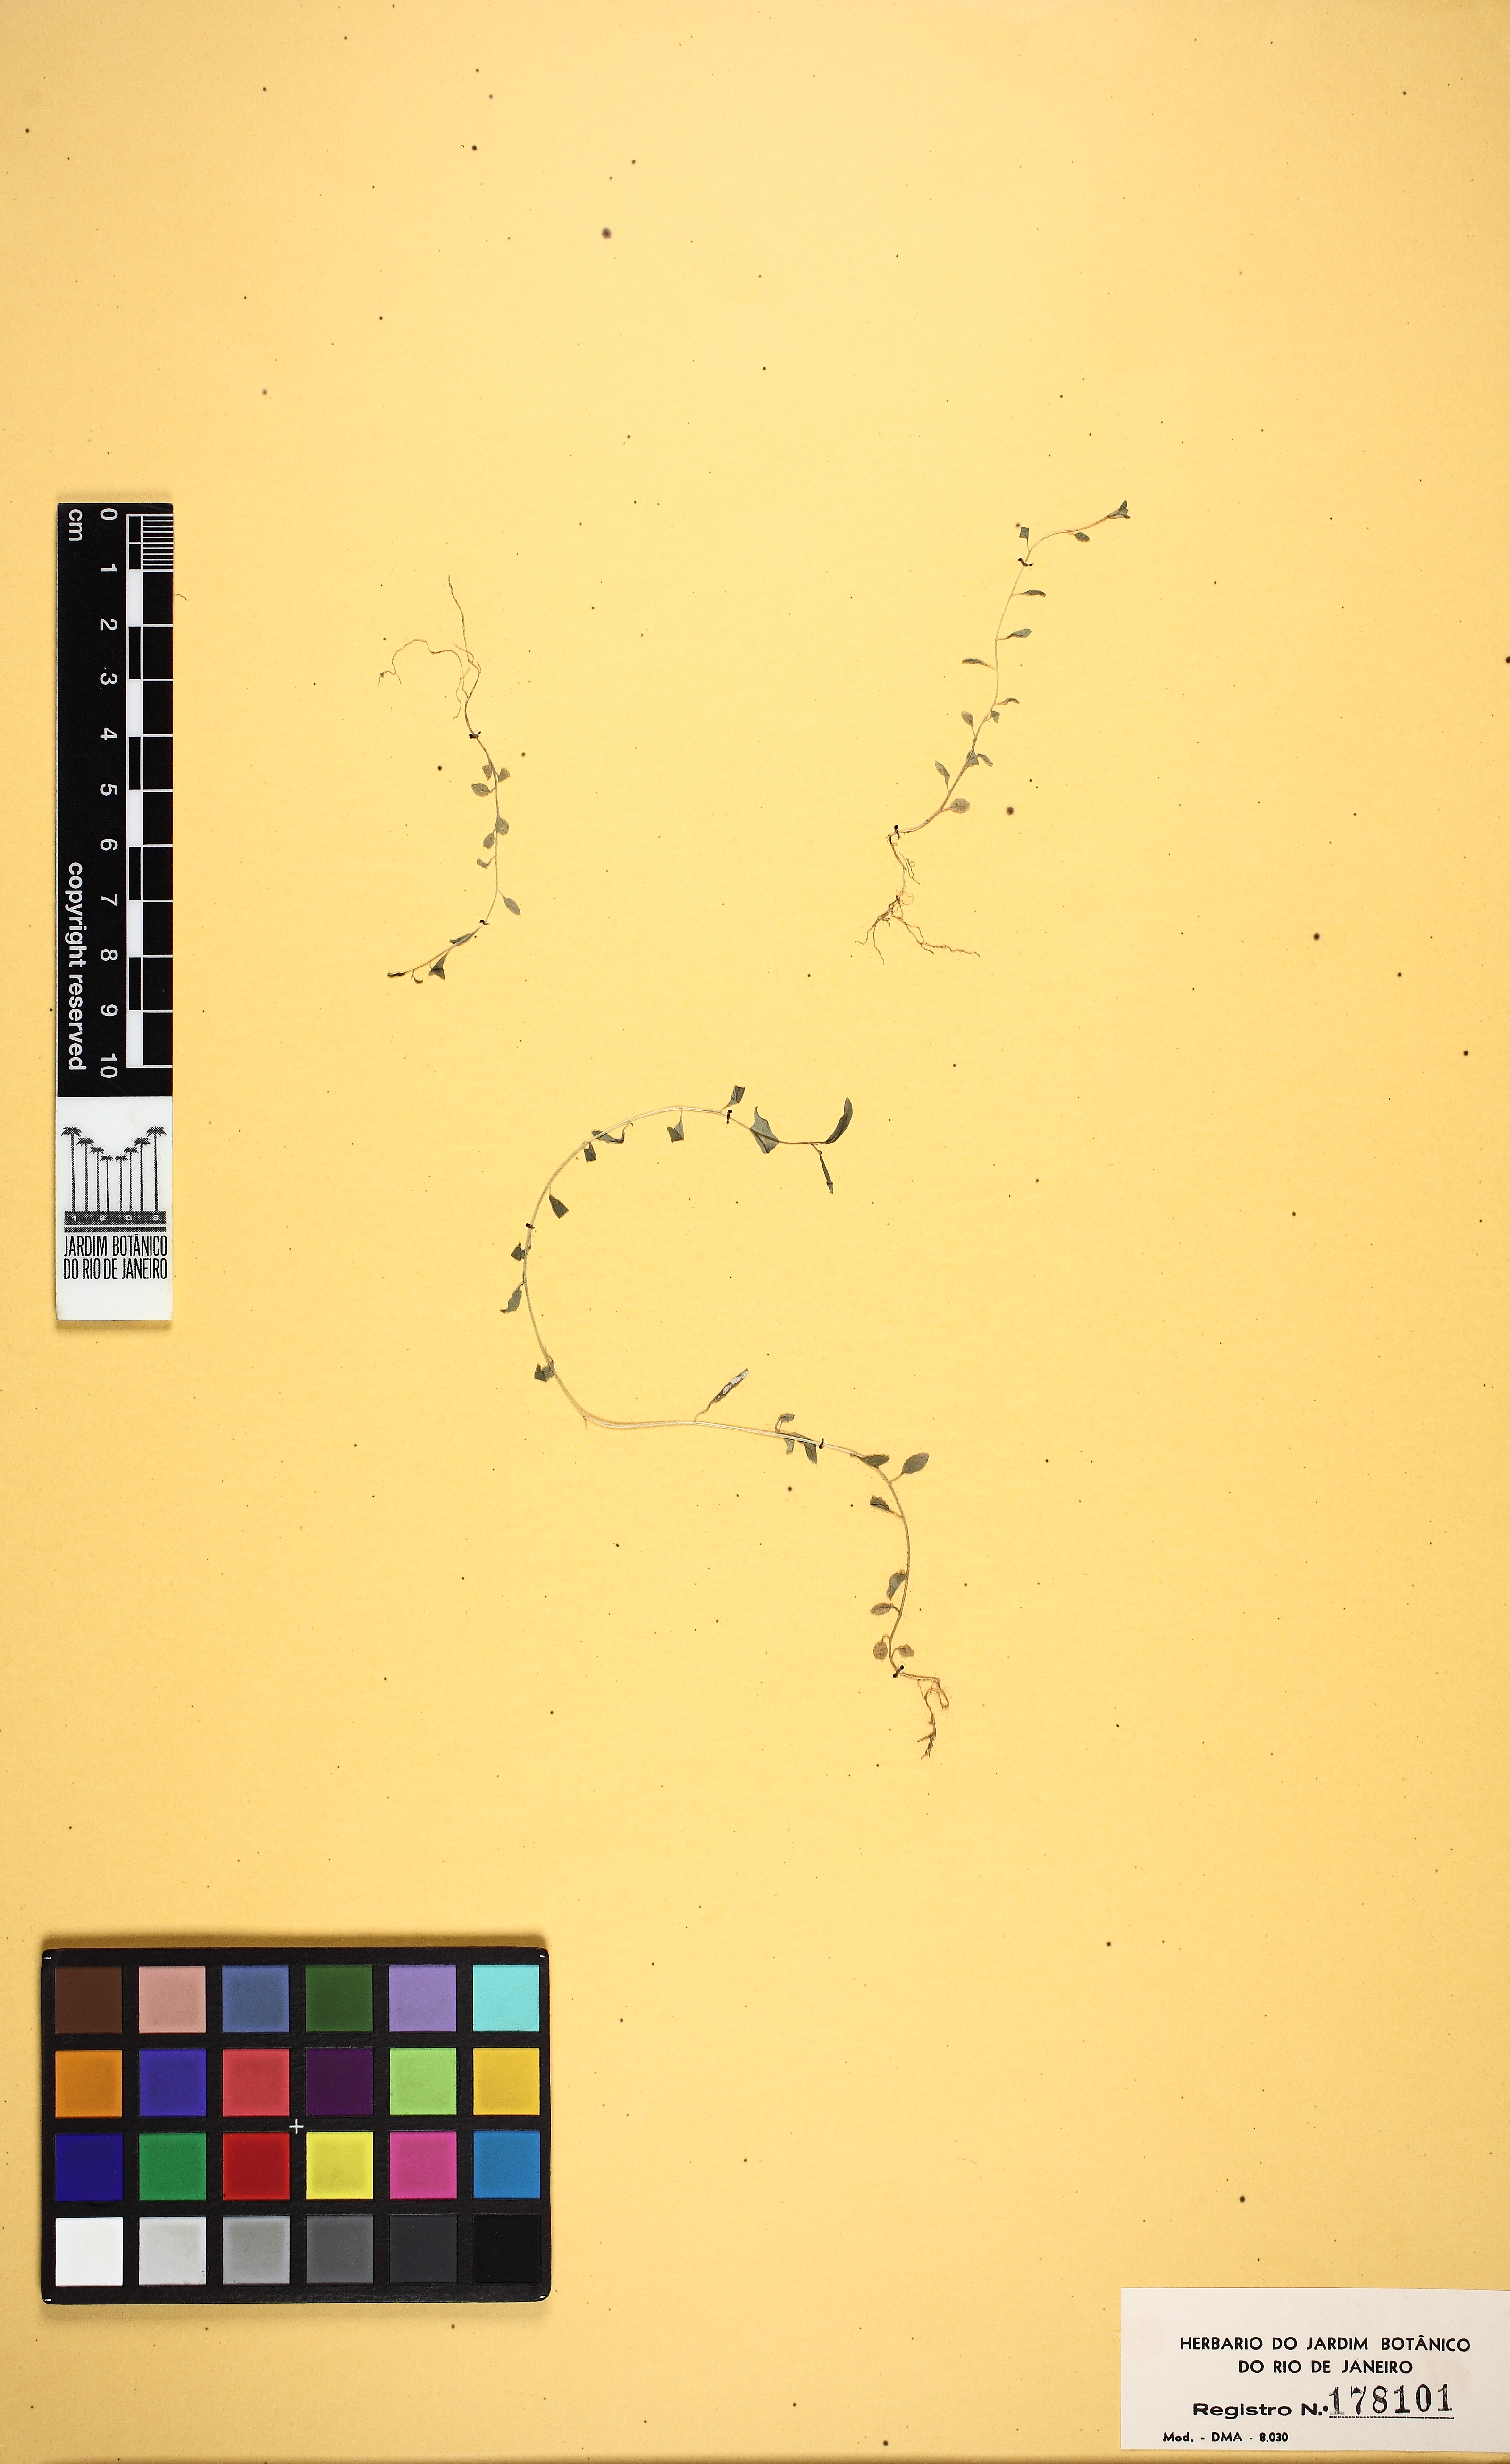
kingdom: Plantae
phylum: Tracheophyta
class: Magnoliopsida
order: Solanales
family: Solanaceae
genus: Schwenckia
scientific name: Schwenckia americana
